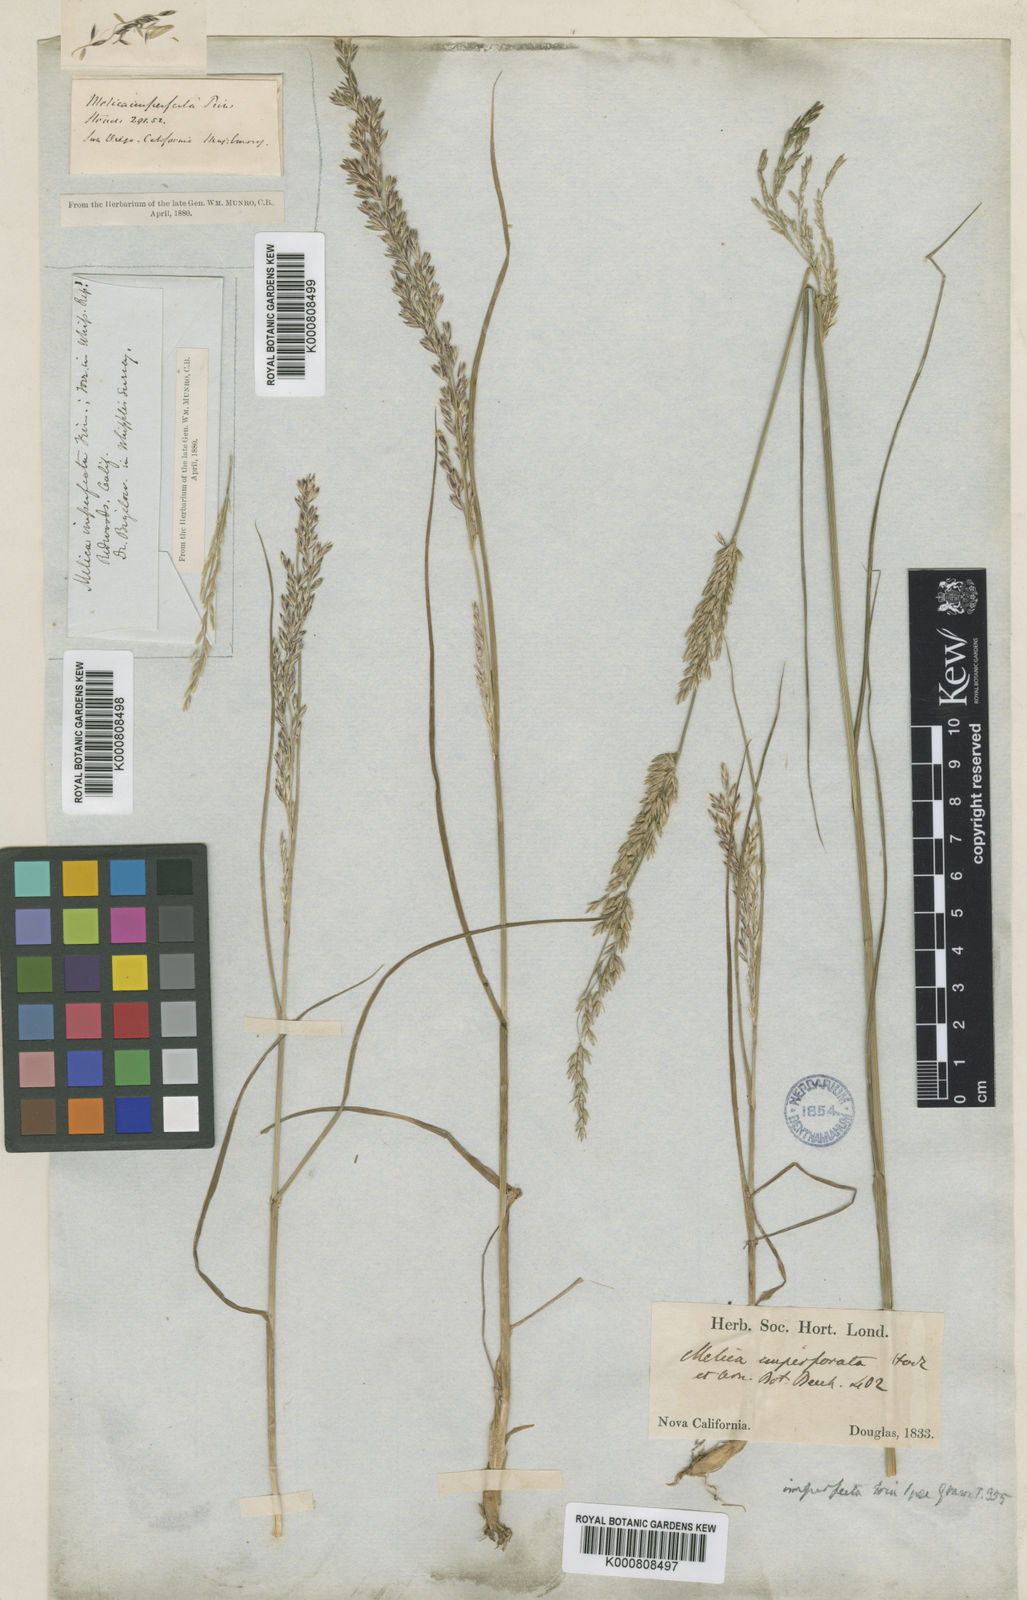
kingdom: Plantae
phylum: Tracheophyta
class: Liliopsida
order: Poales
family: Poaceae
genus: Melica
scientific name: Melica imperfecta
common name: California melic
